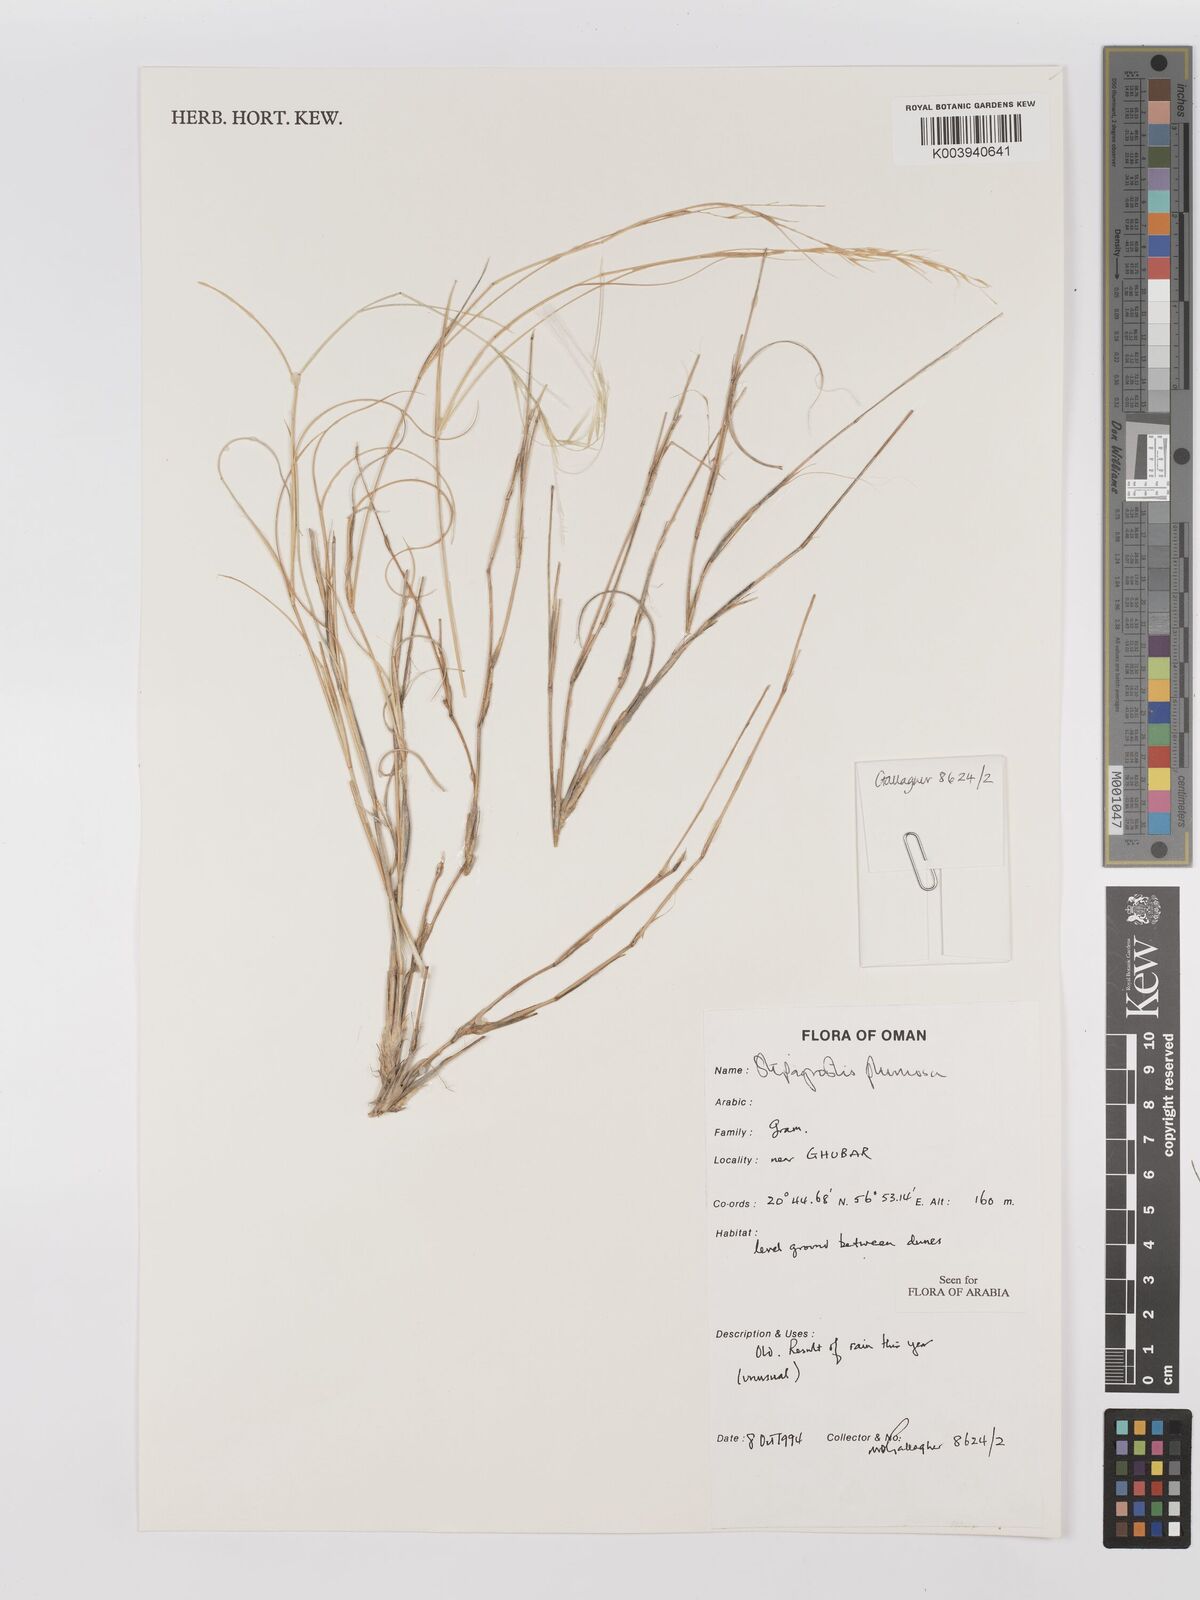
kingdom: Plantae
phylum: Tracheophyta
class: Liliopsida
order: Poales
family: Poaceae
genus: Stipagrostis
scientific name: Stipagrostis plumosa
